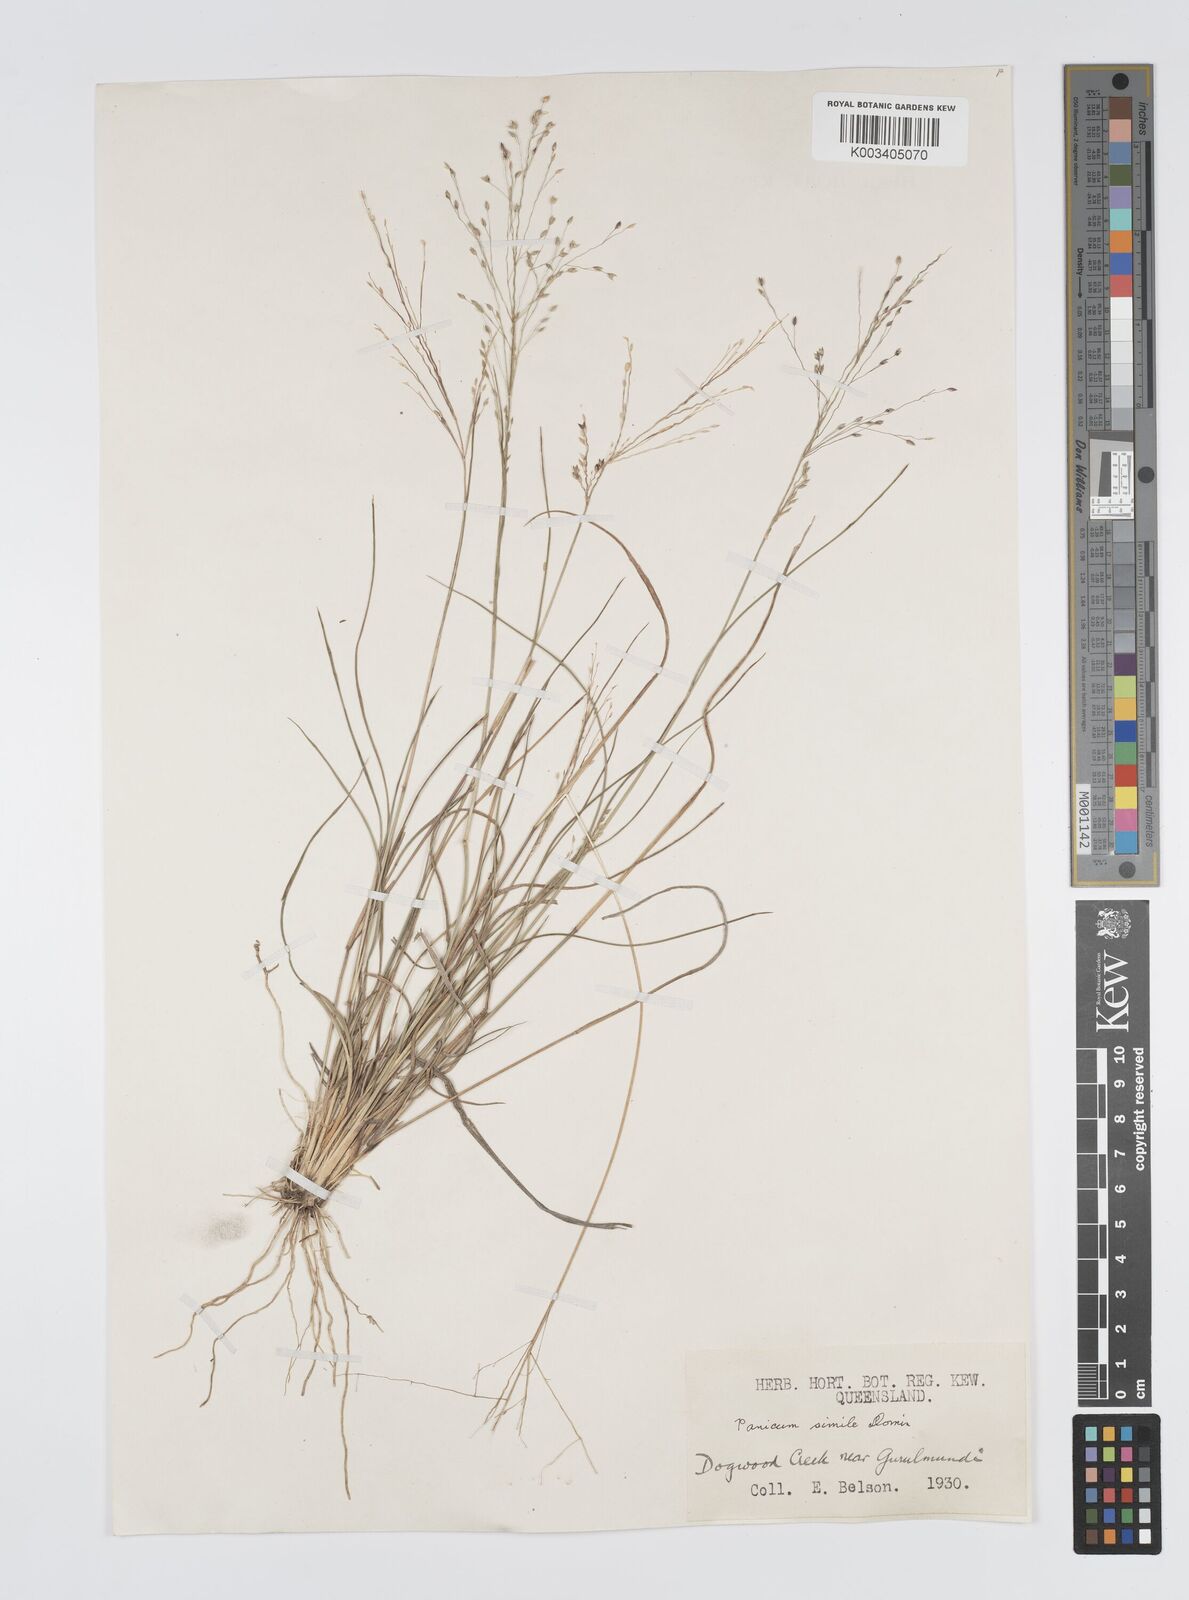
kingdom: Plantae
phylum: Tracheophyta
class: Liliopsida
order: Poales
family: Poaceae
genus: Panicum
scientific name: Panicum simile
